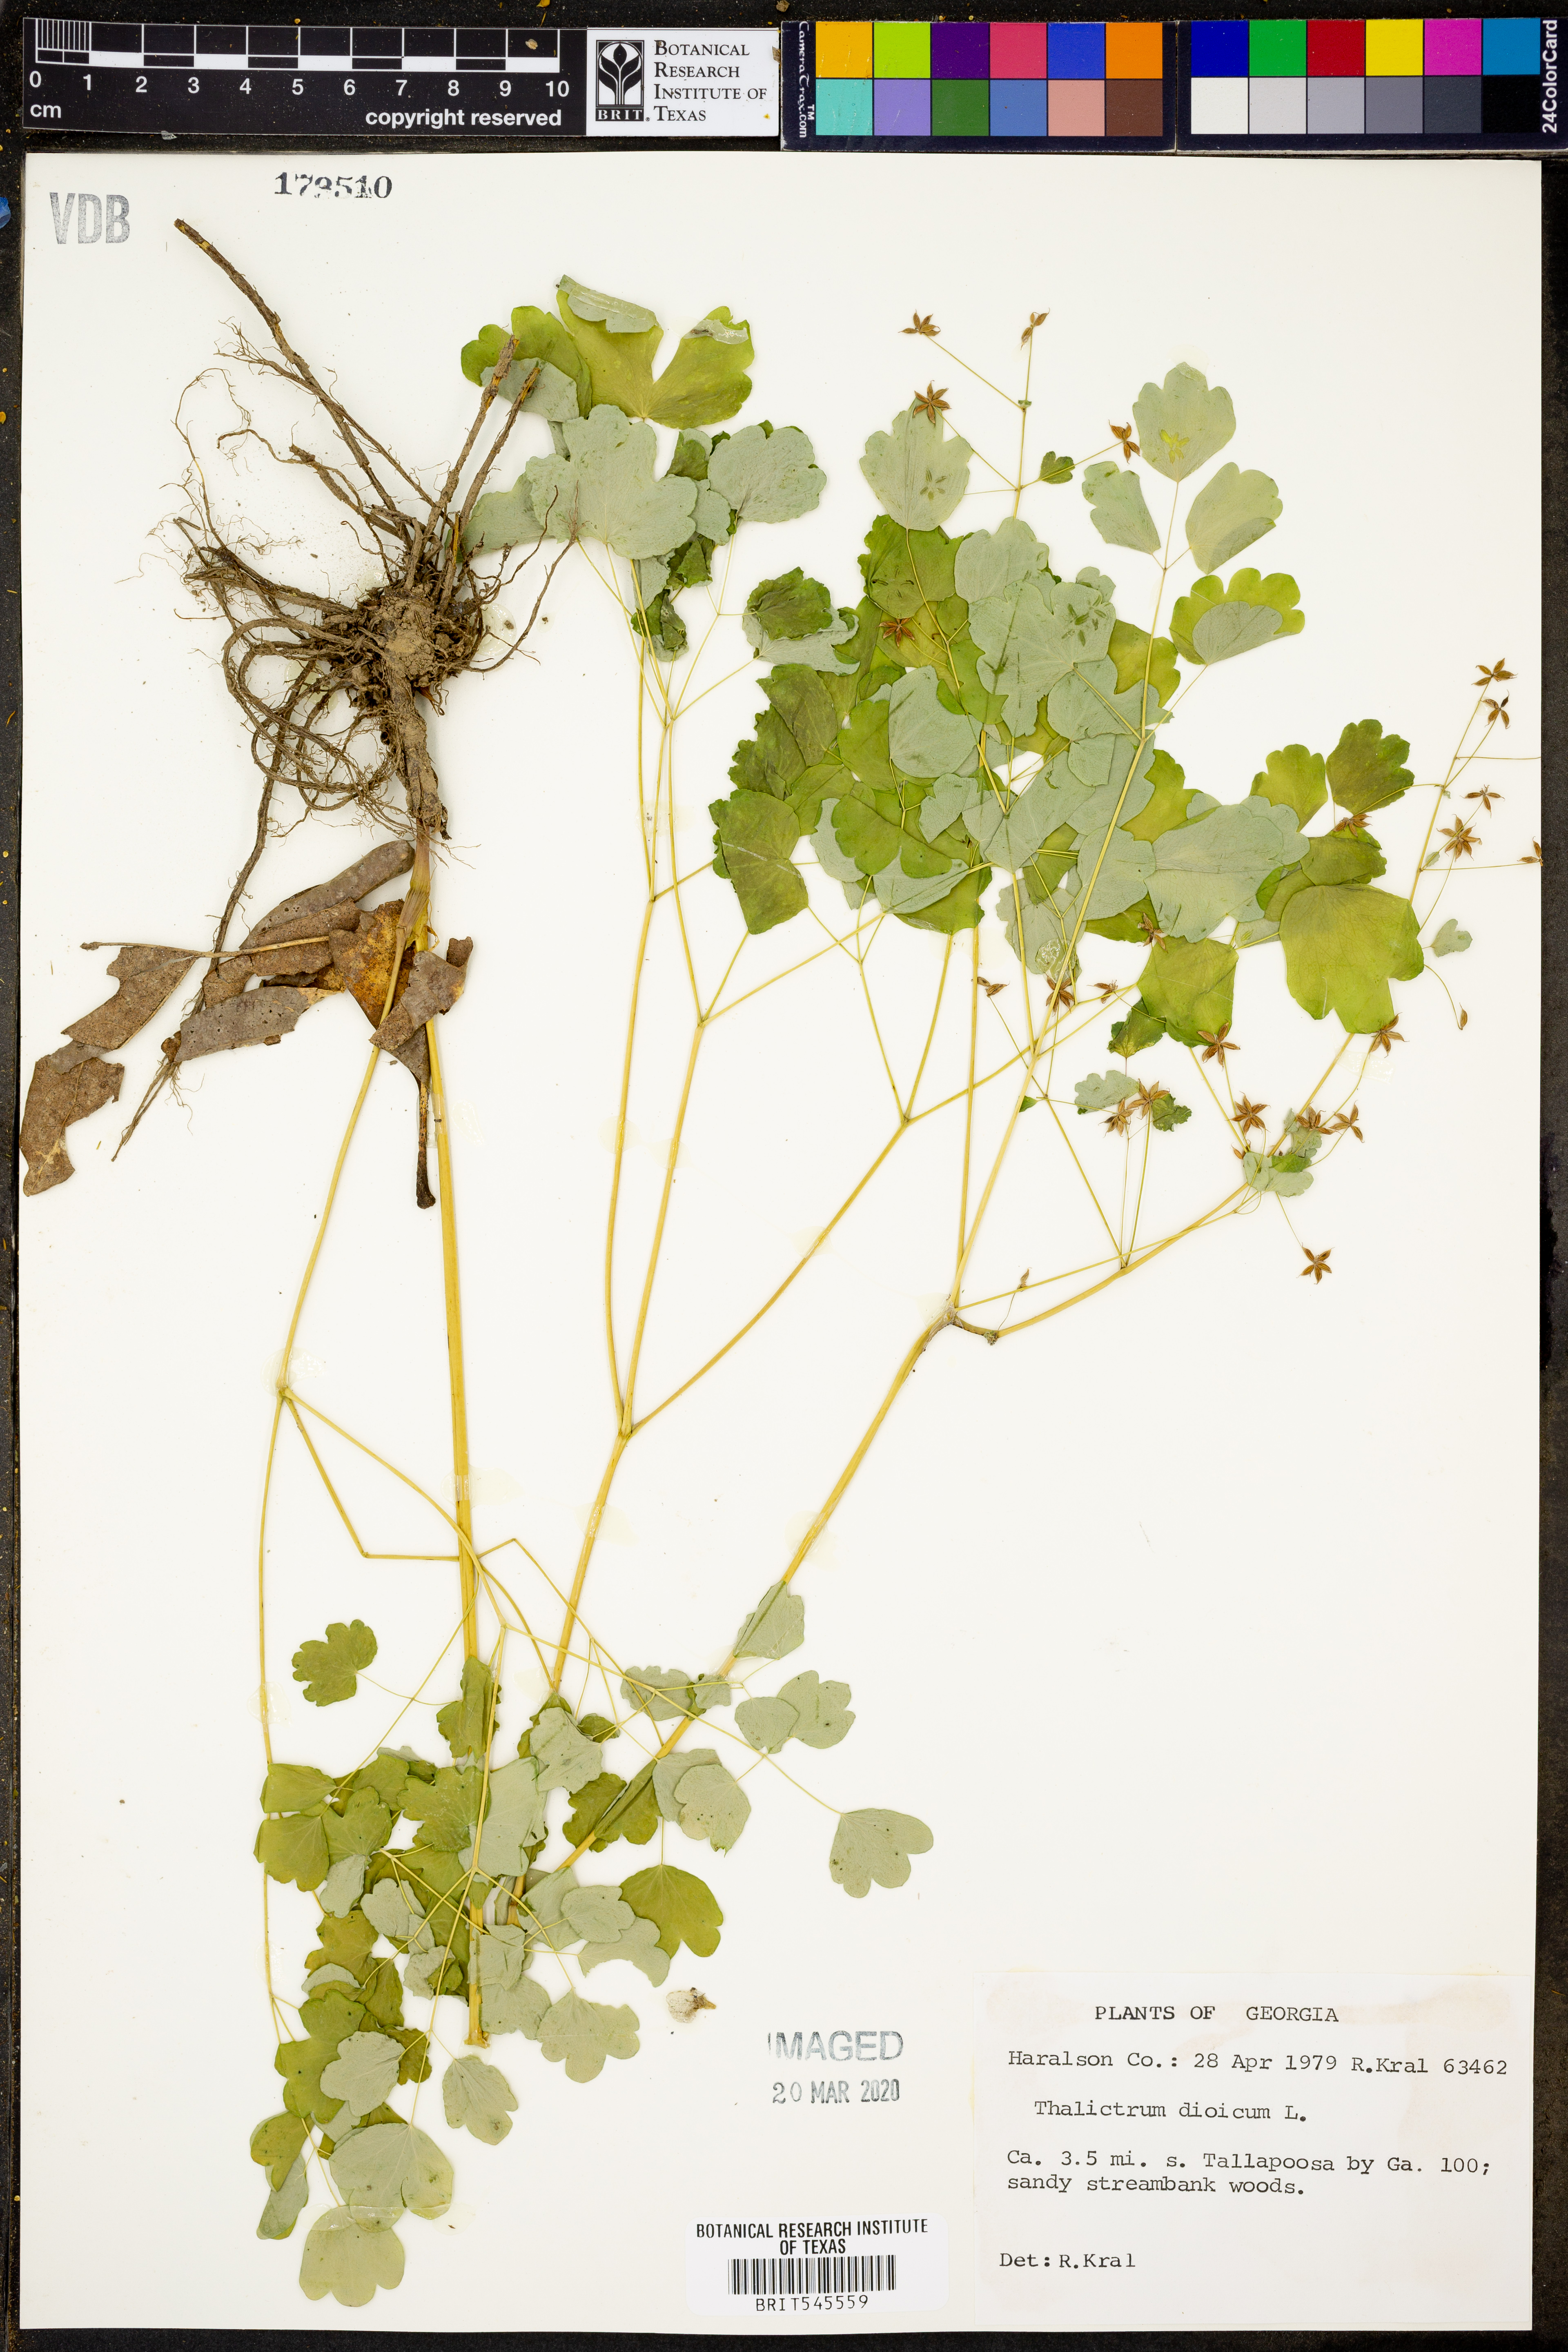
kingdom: Plantae
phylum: Tracheophyta
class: Magnoliopsida
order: Ranunculales
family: Ranunculaceae
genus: Thalictrum
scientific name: Thalictrum dioicum
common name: Early meadow-rue
